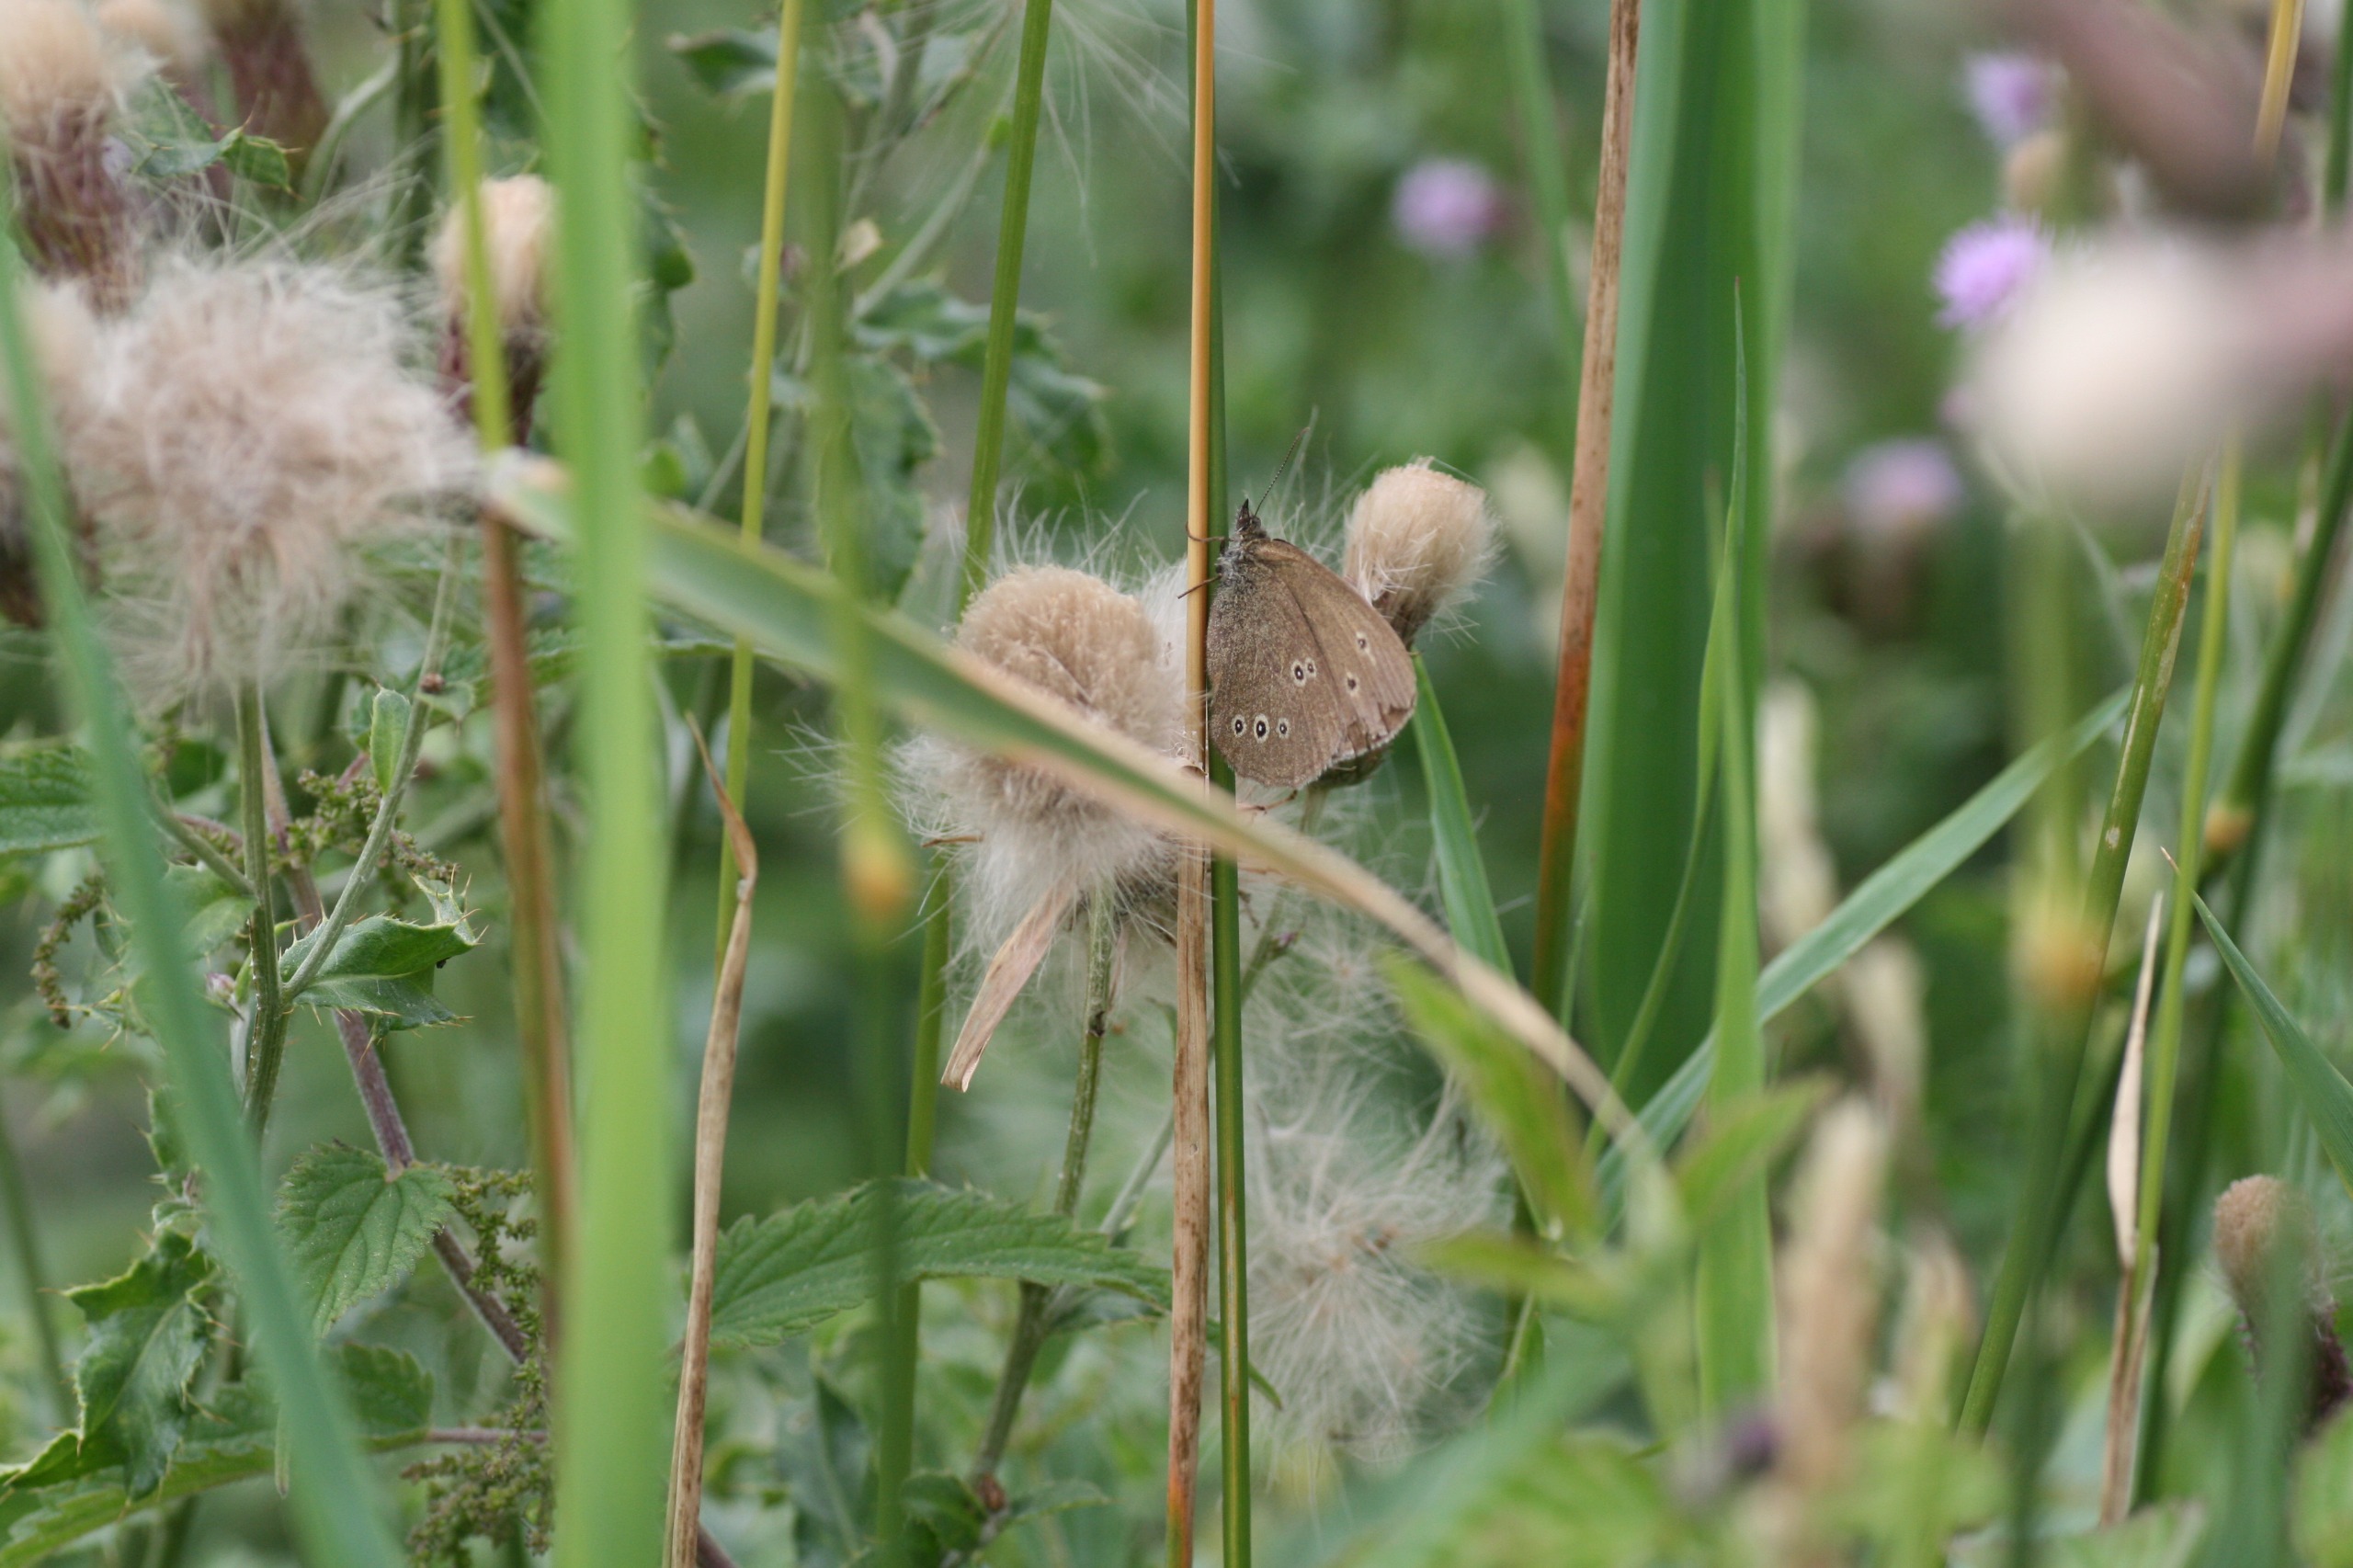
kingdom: Animalia
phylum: Arthropoda
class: Insecta
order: Lepidoptera
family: Nymphalidae
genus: Aphantopus
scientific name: Aphantopus hyperantus
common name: Engrandøje
